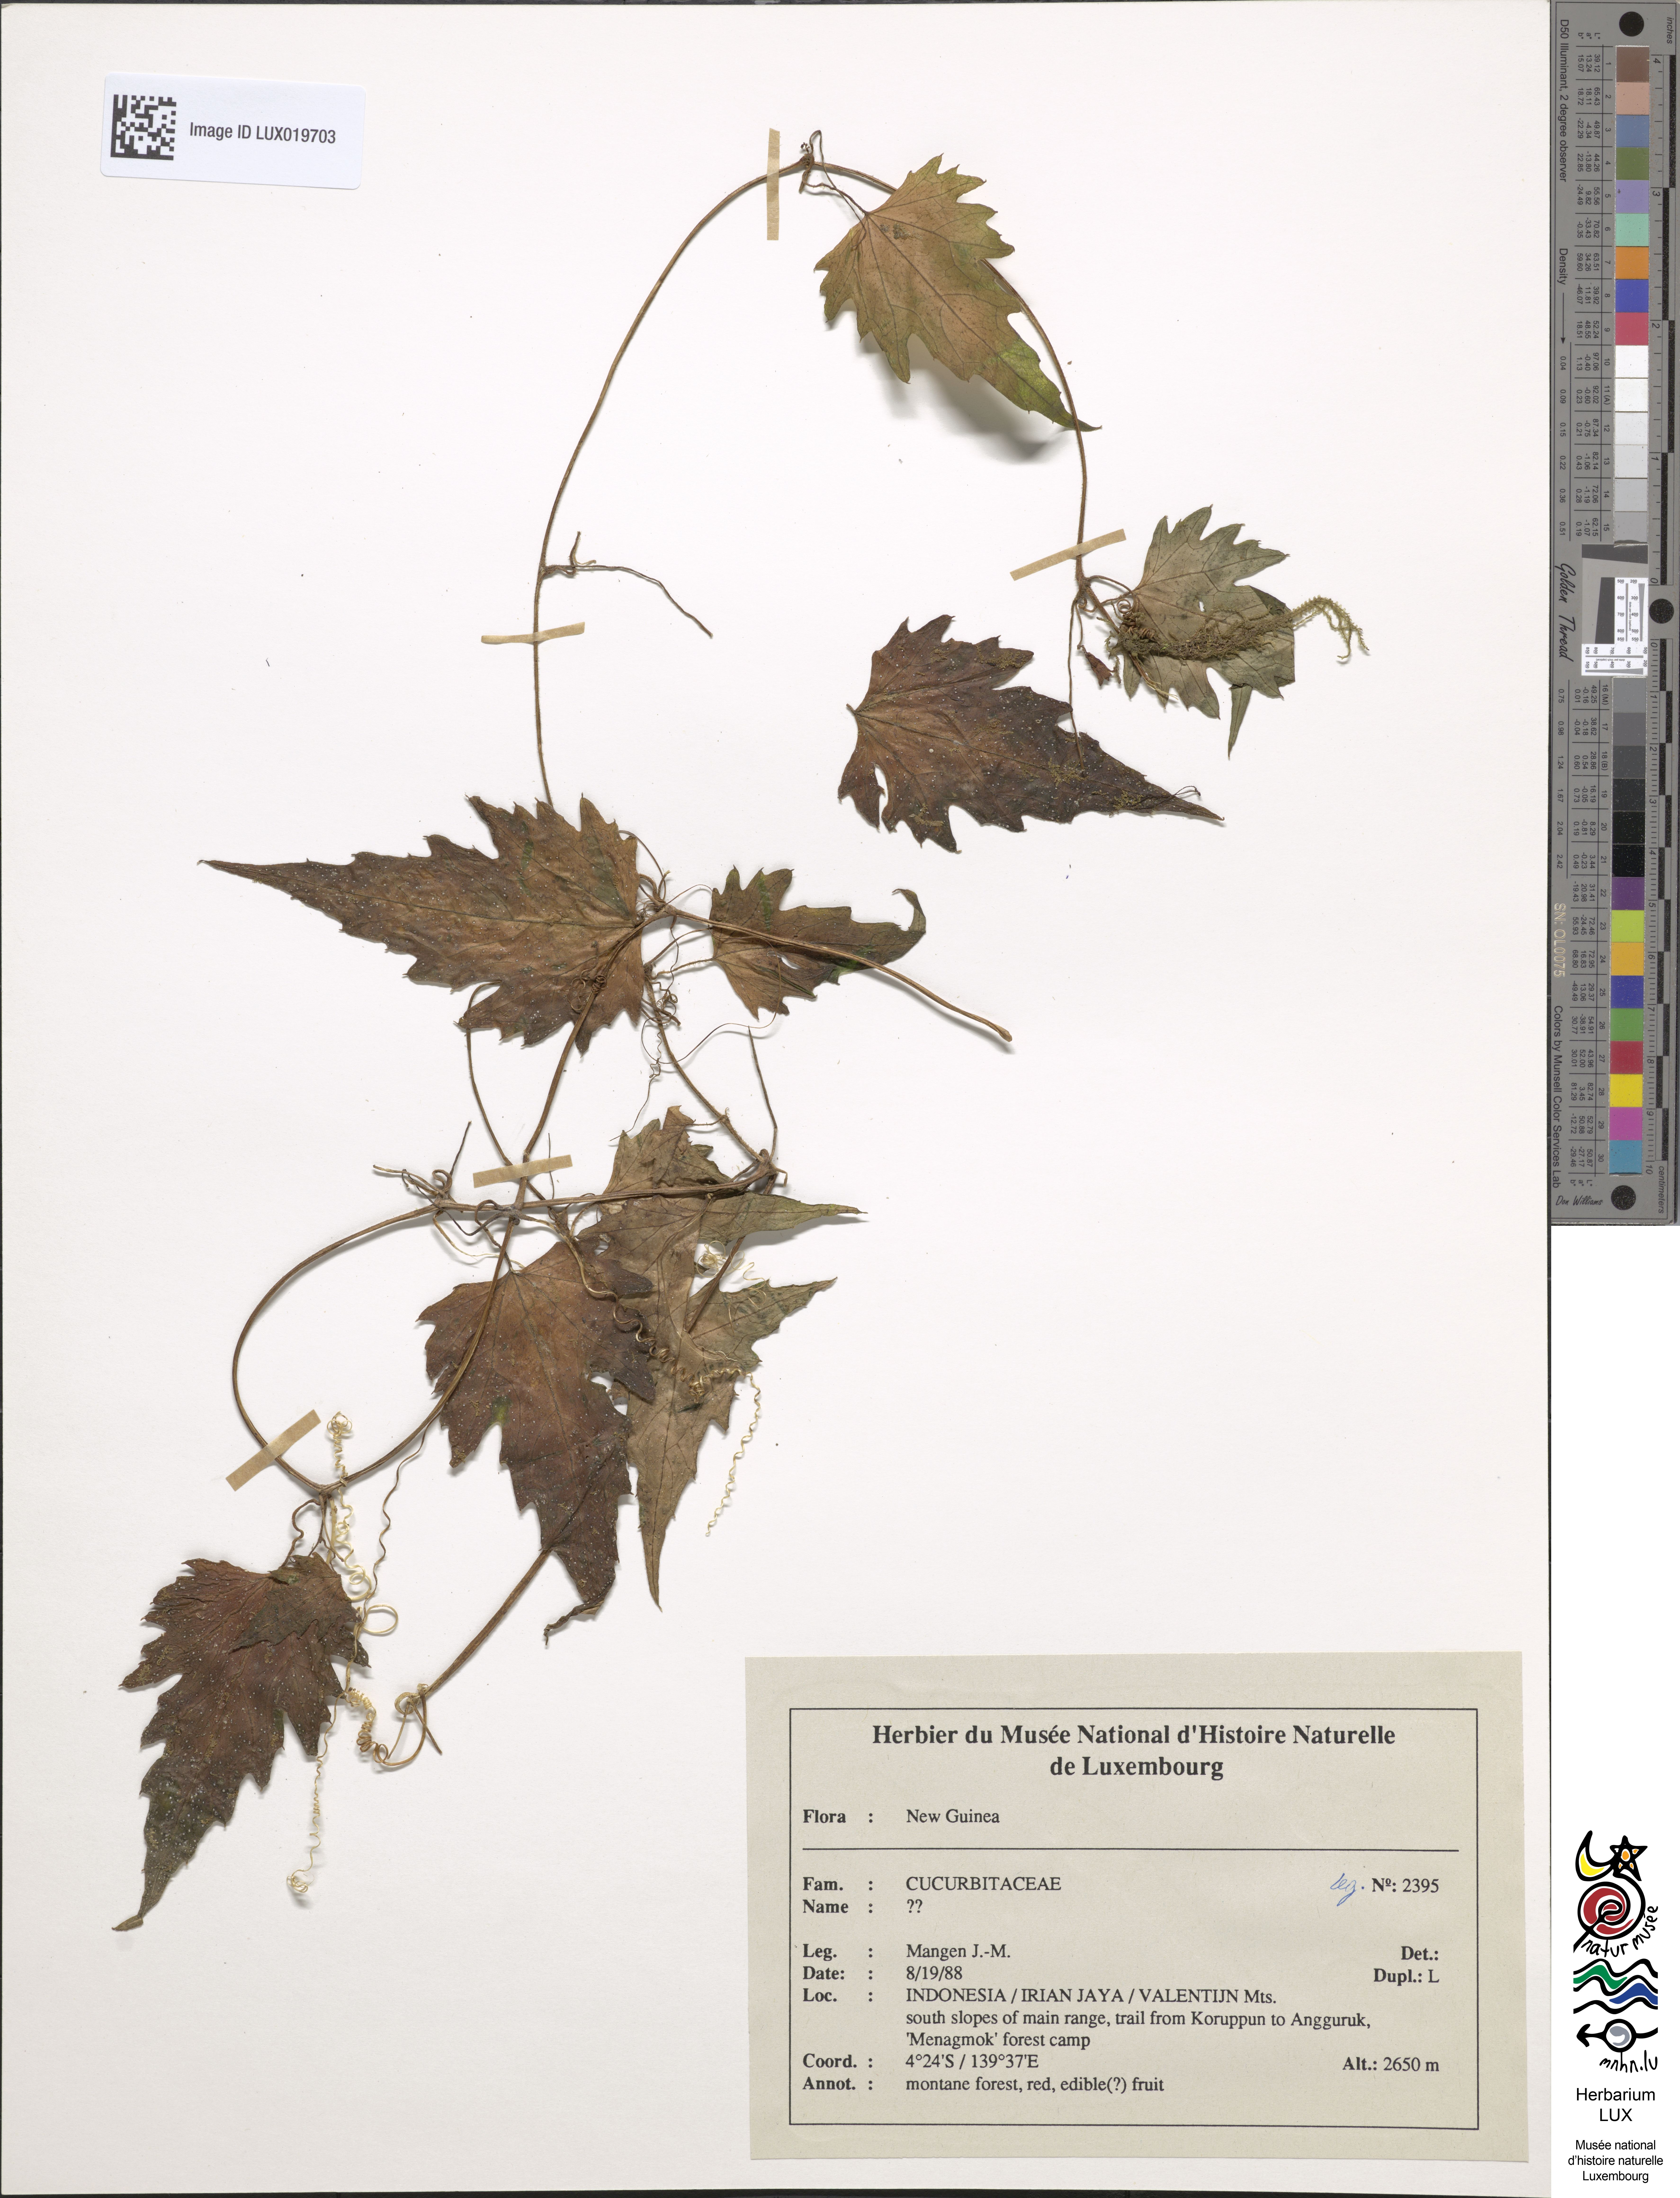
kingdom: Plantae
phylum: Tracheophyta
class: Magnoliopsida
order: Cucurbitales
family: Cucurbitaceae
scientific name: Cucurbitaceae
